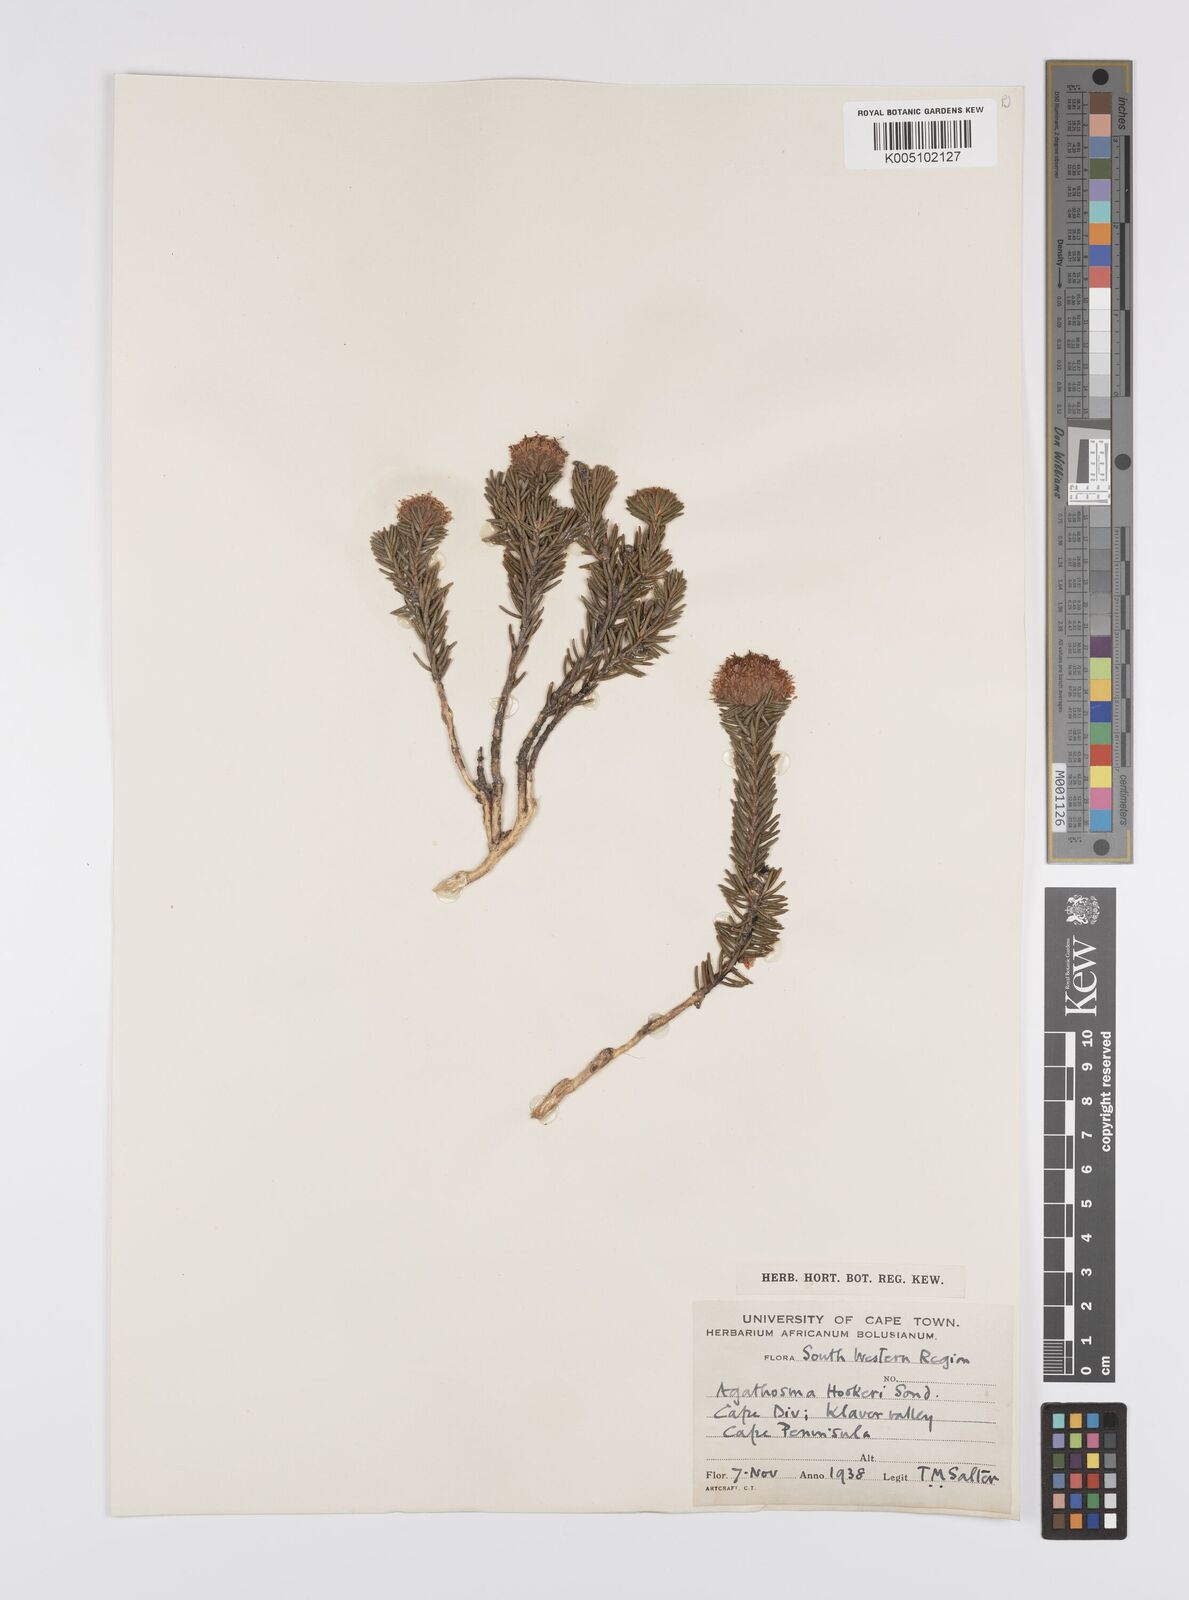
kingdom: Plantae
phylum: Tracheophyta
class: Magnoliopsida
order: Sapindales
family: Rutaceae
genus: Agathosma
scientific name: Agathosma hookeri
